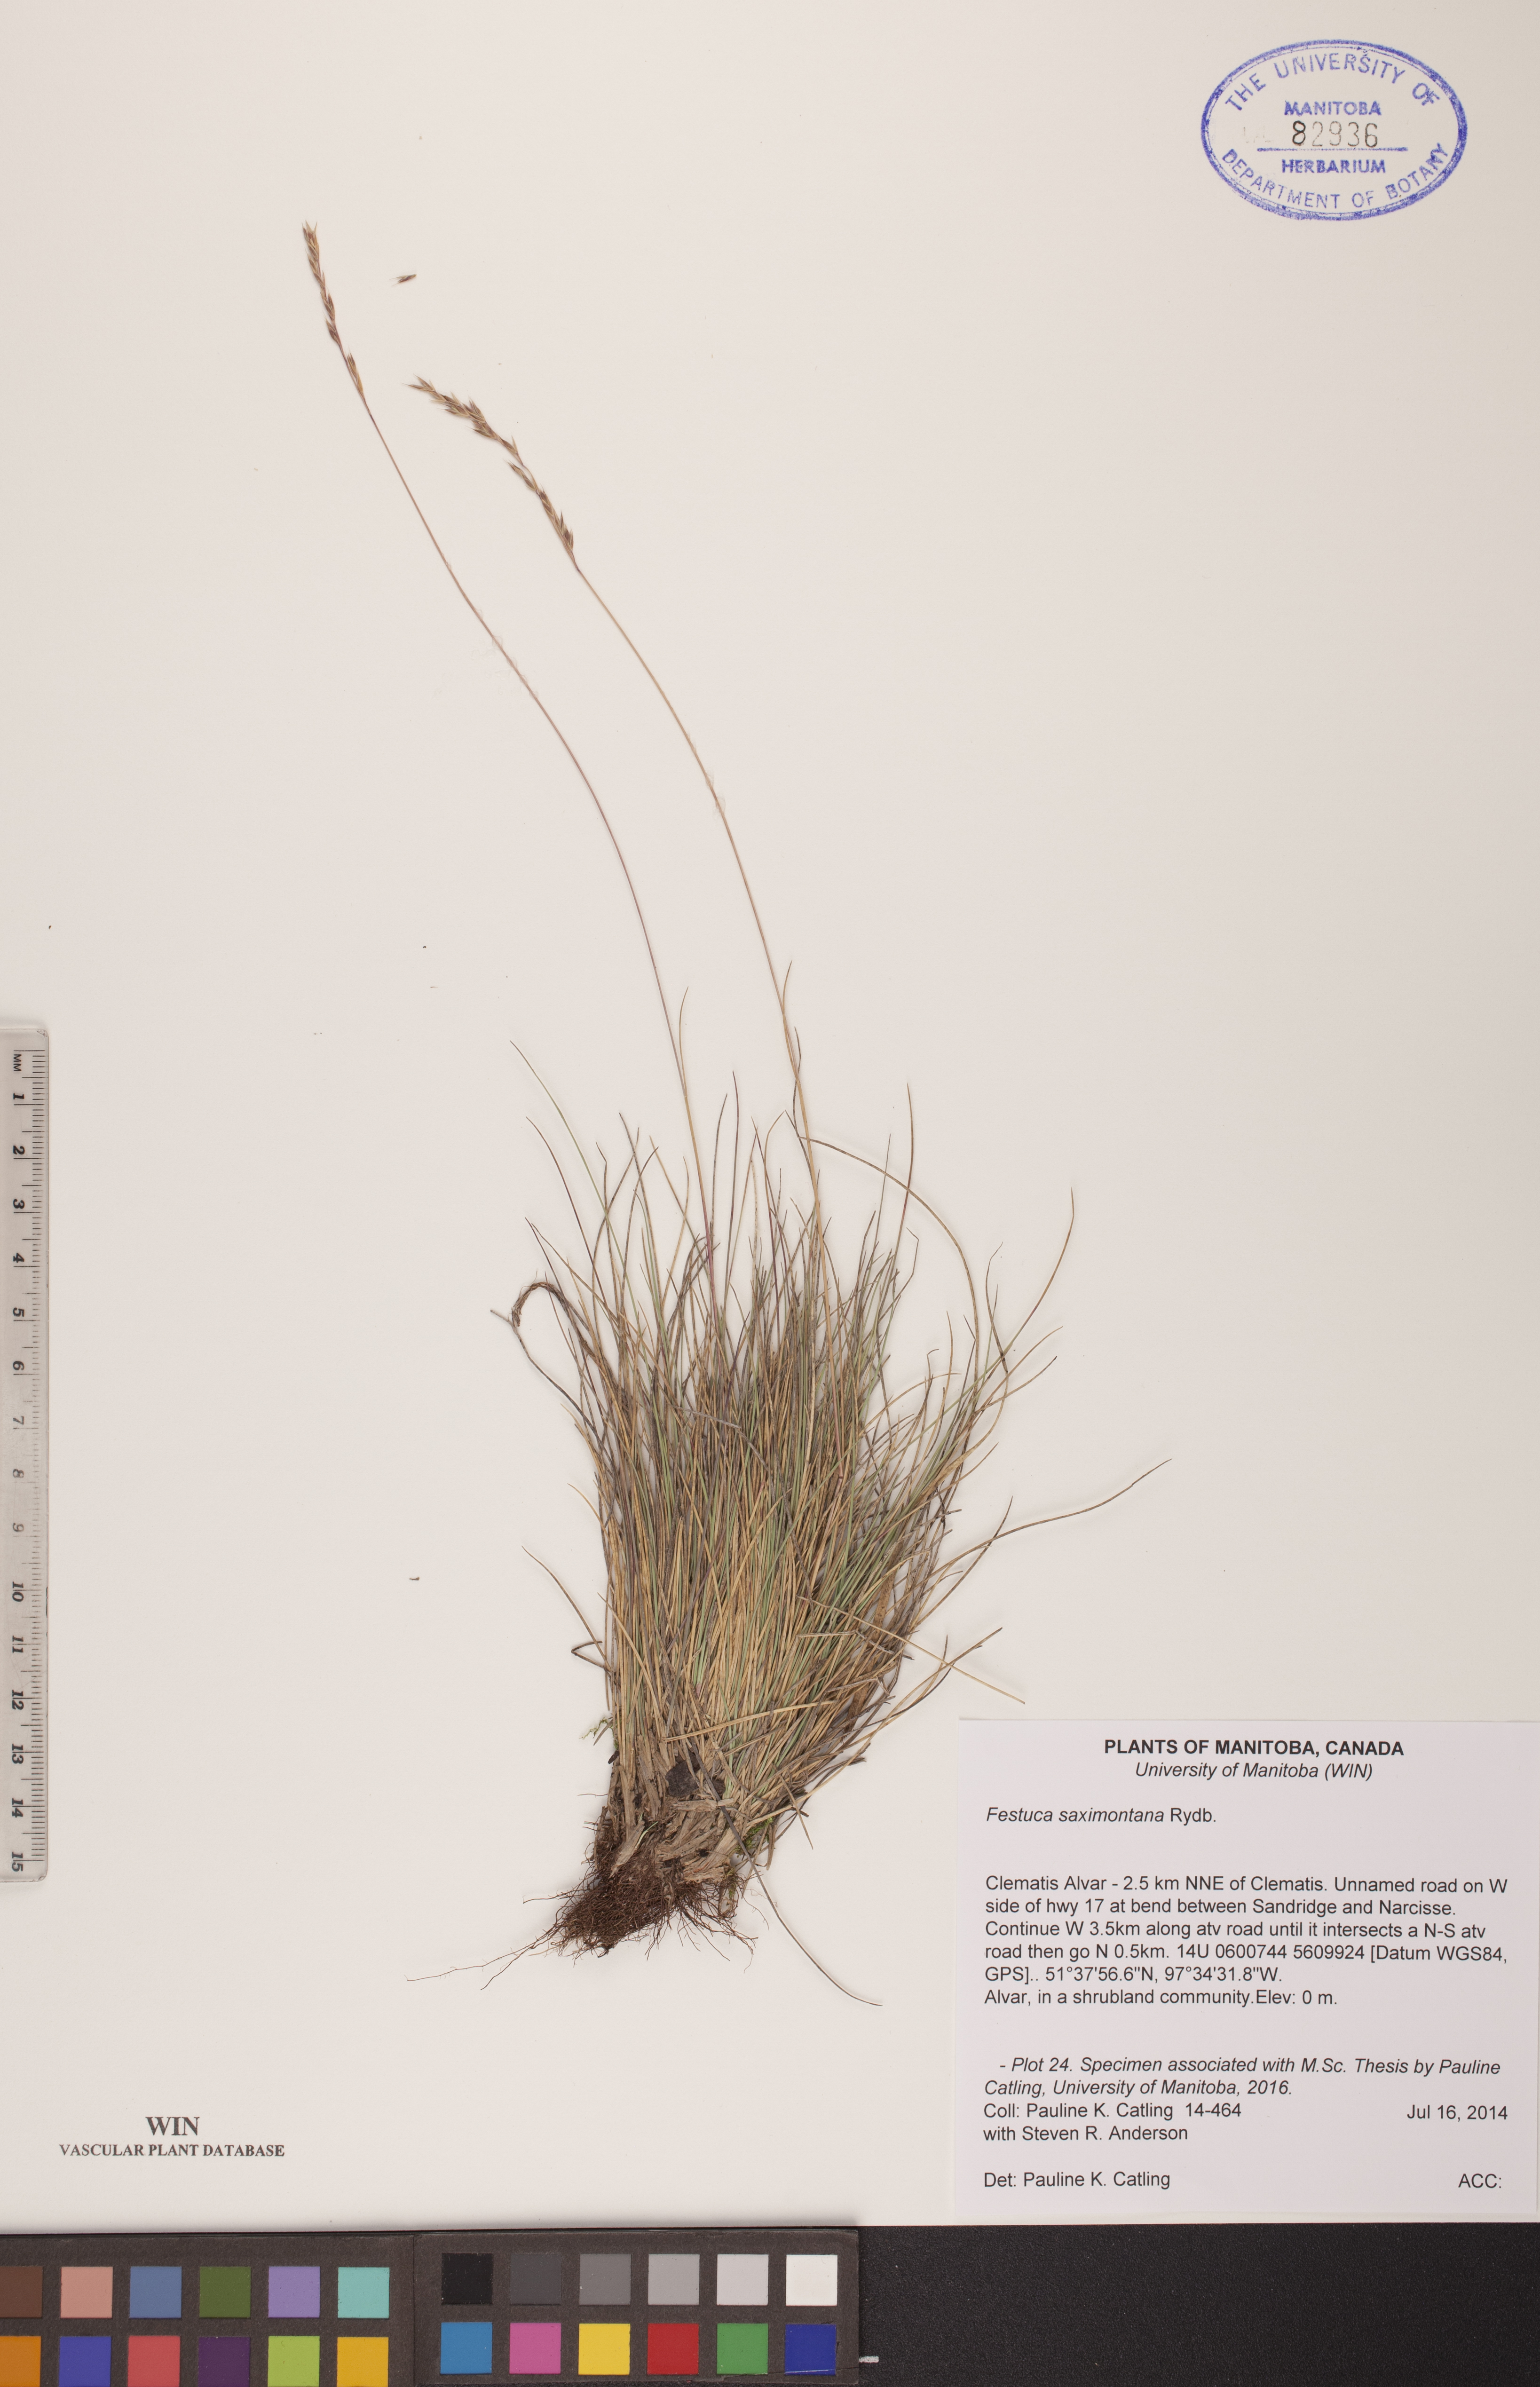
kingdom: Plantae
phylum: Tracheophyta
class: Liliopsida
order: Poales
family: Poaceae
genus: Festuca
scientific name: Festuca saximontana
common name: Mountain fescue
